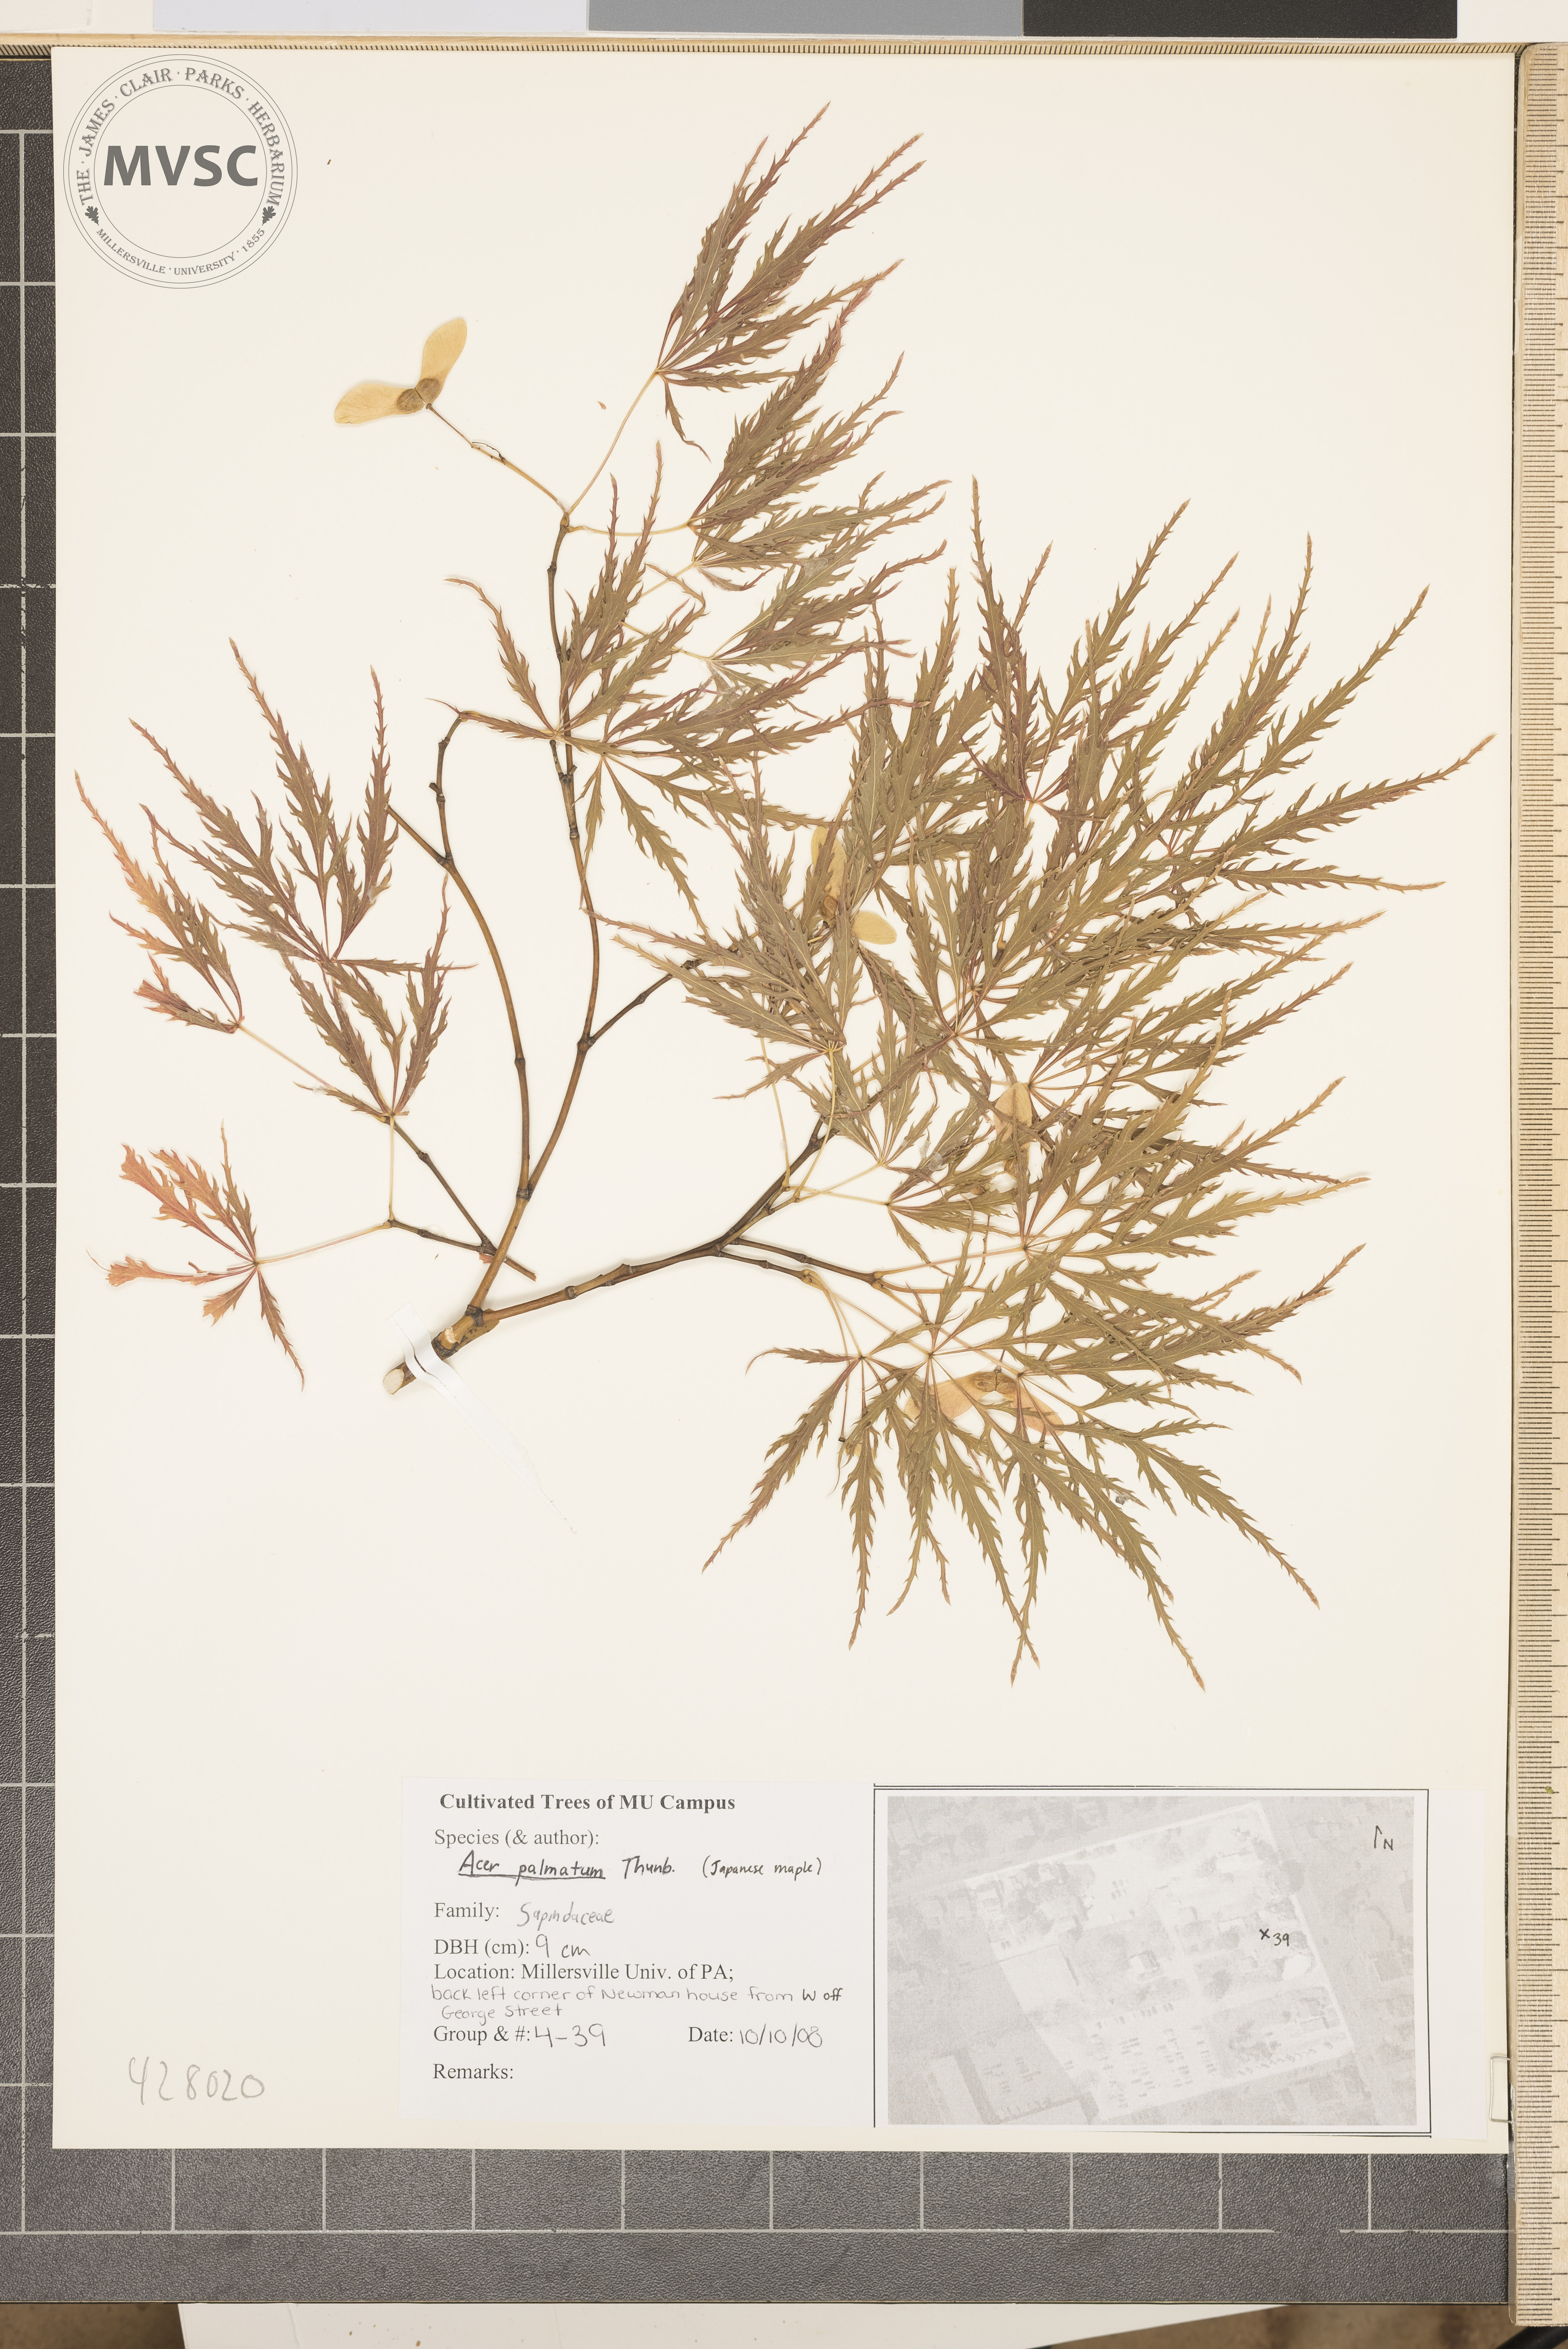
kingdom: Plantae
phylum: Tracheophyta
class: Magnoliopsida
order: Sapindales
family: Sapindaceae
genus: Acer
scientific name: Acer palmatum
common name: Japanese Maple
